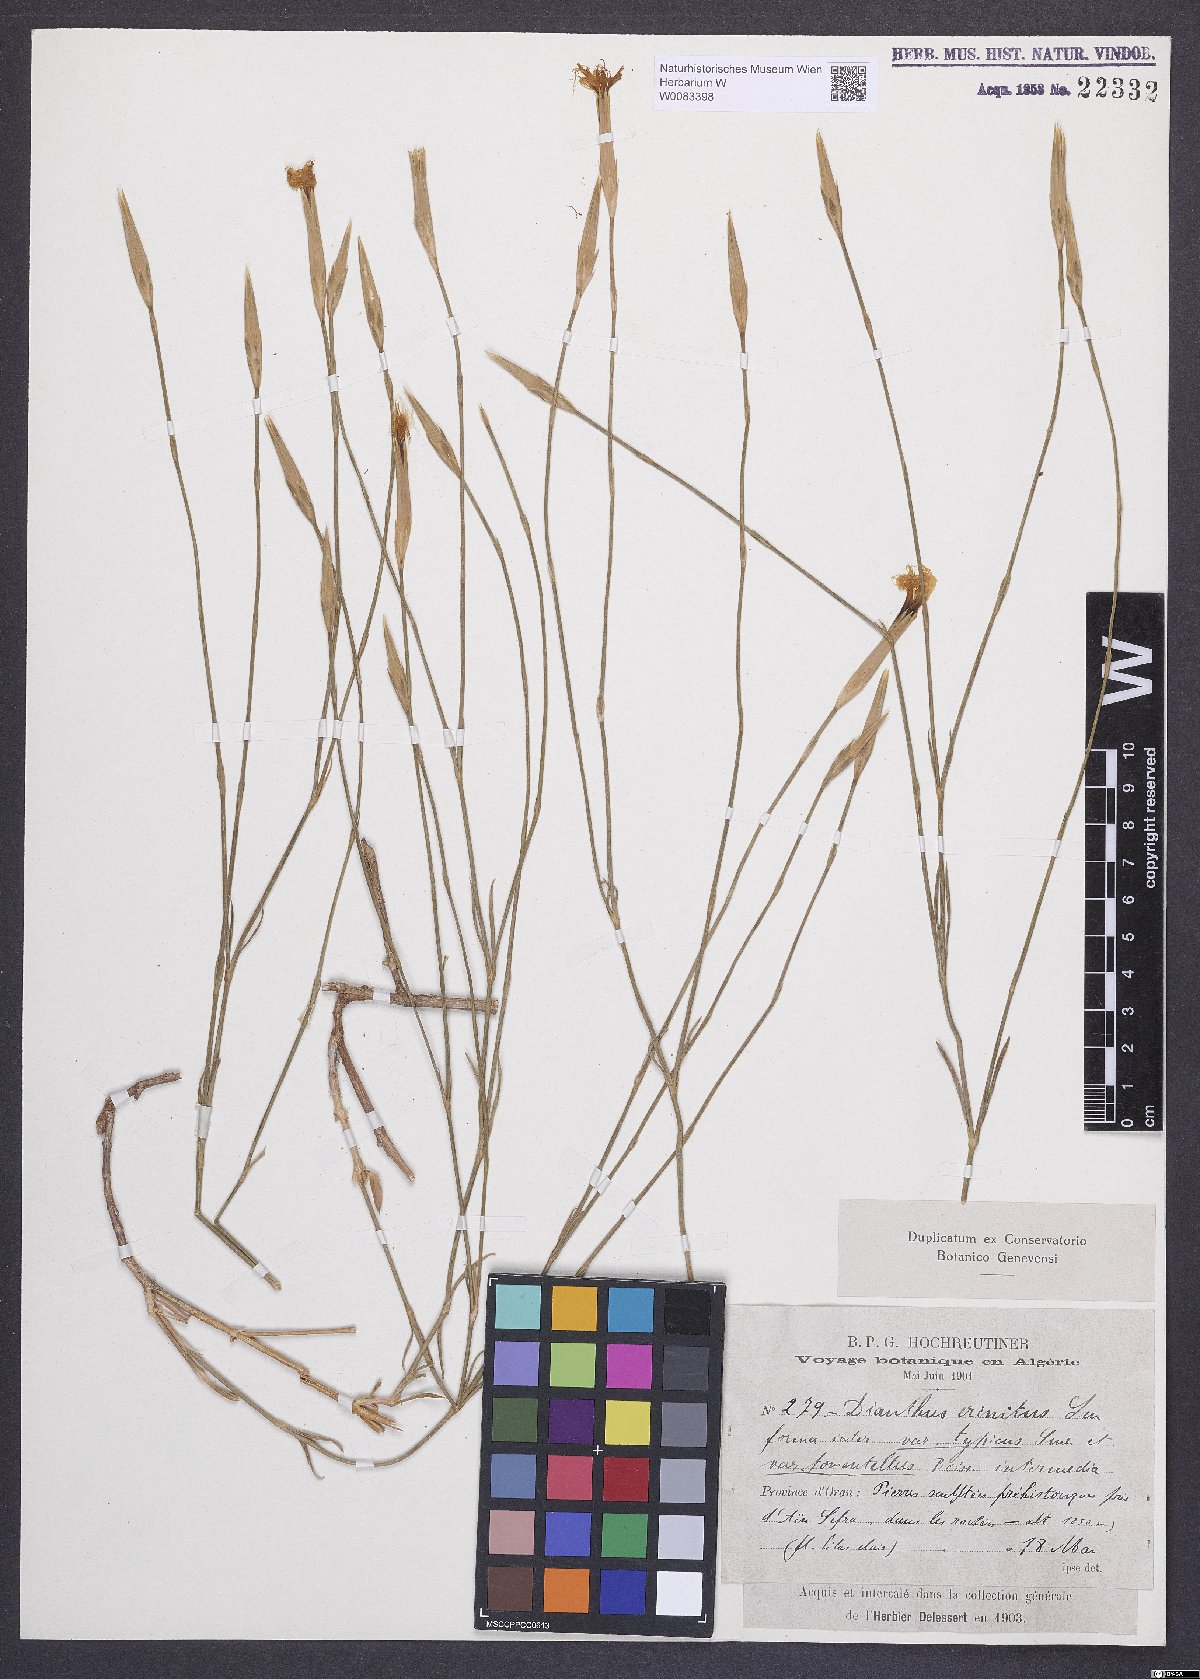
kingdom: Plantae
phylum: Tracheophyta
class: Magnoliopsida
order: Caryophyllales
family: Caryophyllaceae
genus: Dianthus
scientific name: Dianthus crinitus
